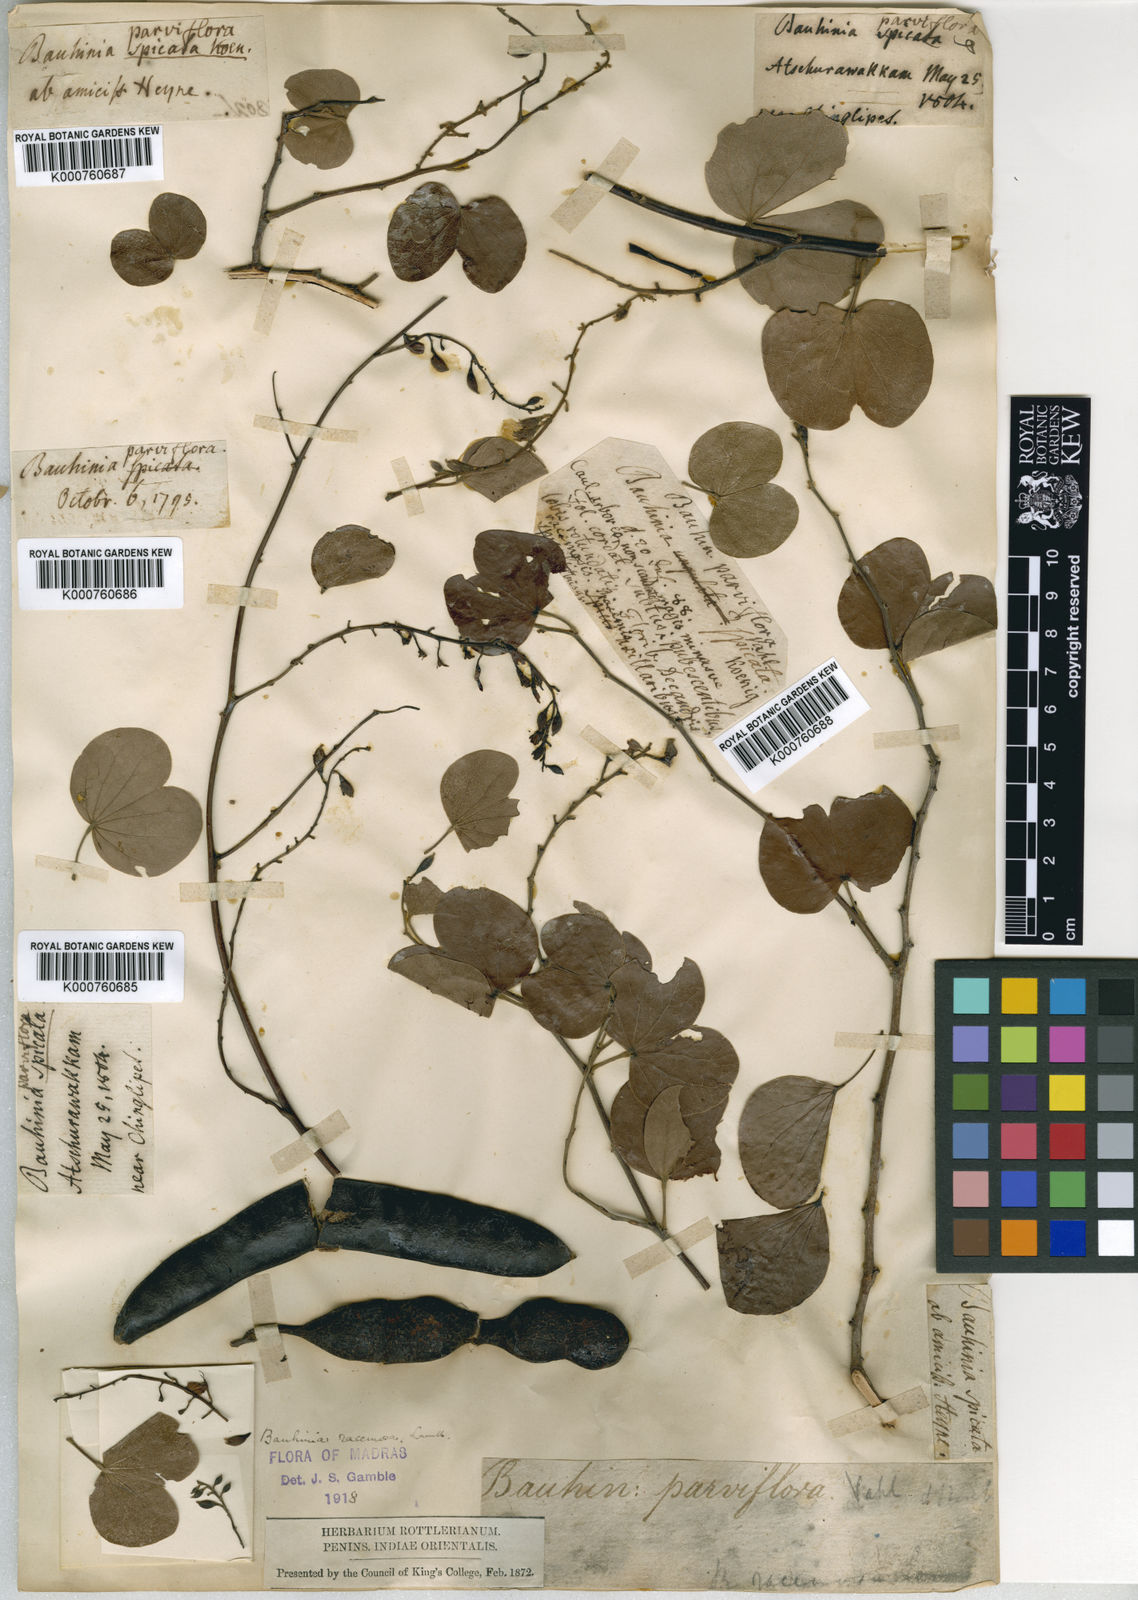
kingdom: Plantae
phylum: Tracheophyta
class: Magnoliopsida
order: Fabales
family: Fabaceae
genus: Bauhinia
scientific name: Bauhinia racemosa
